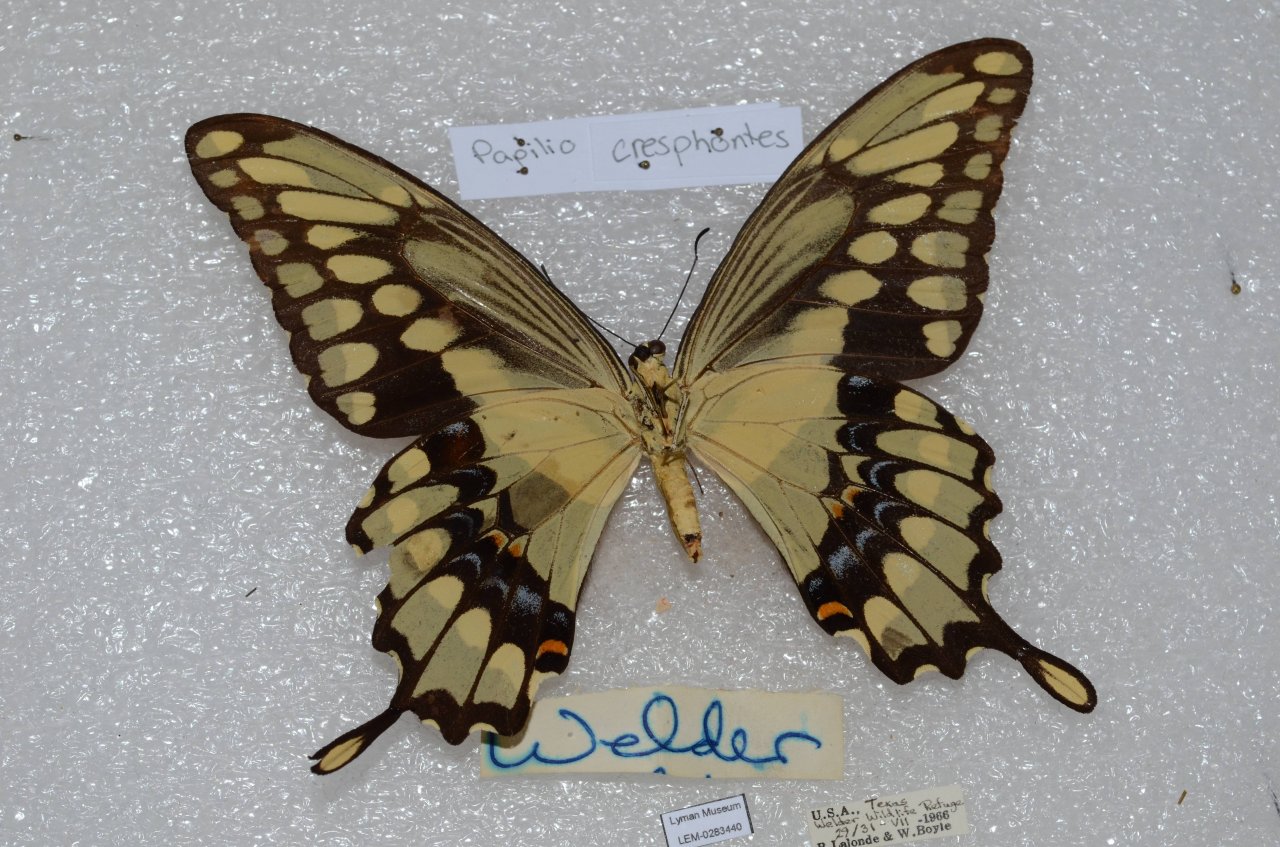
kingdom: Animalia
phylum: Arthropoda
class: Insecta
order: Lepidoptera
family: Papilionidae
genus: Papilio
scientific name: Papilio
